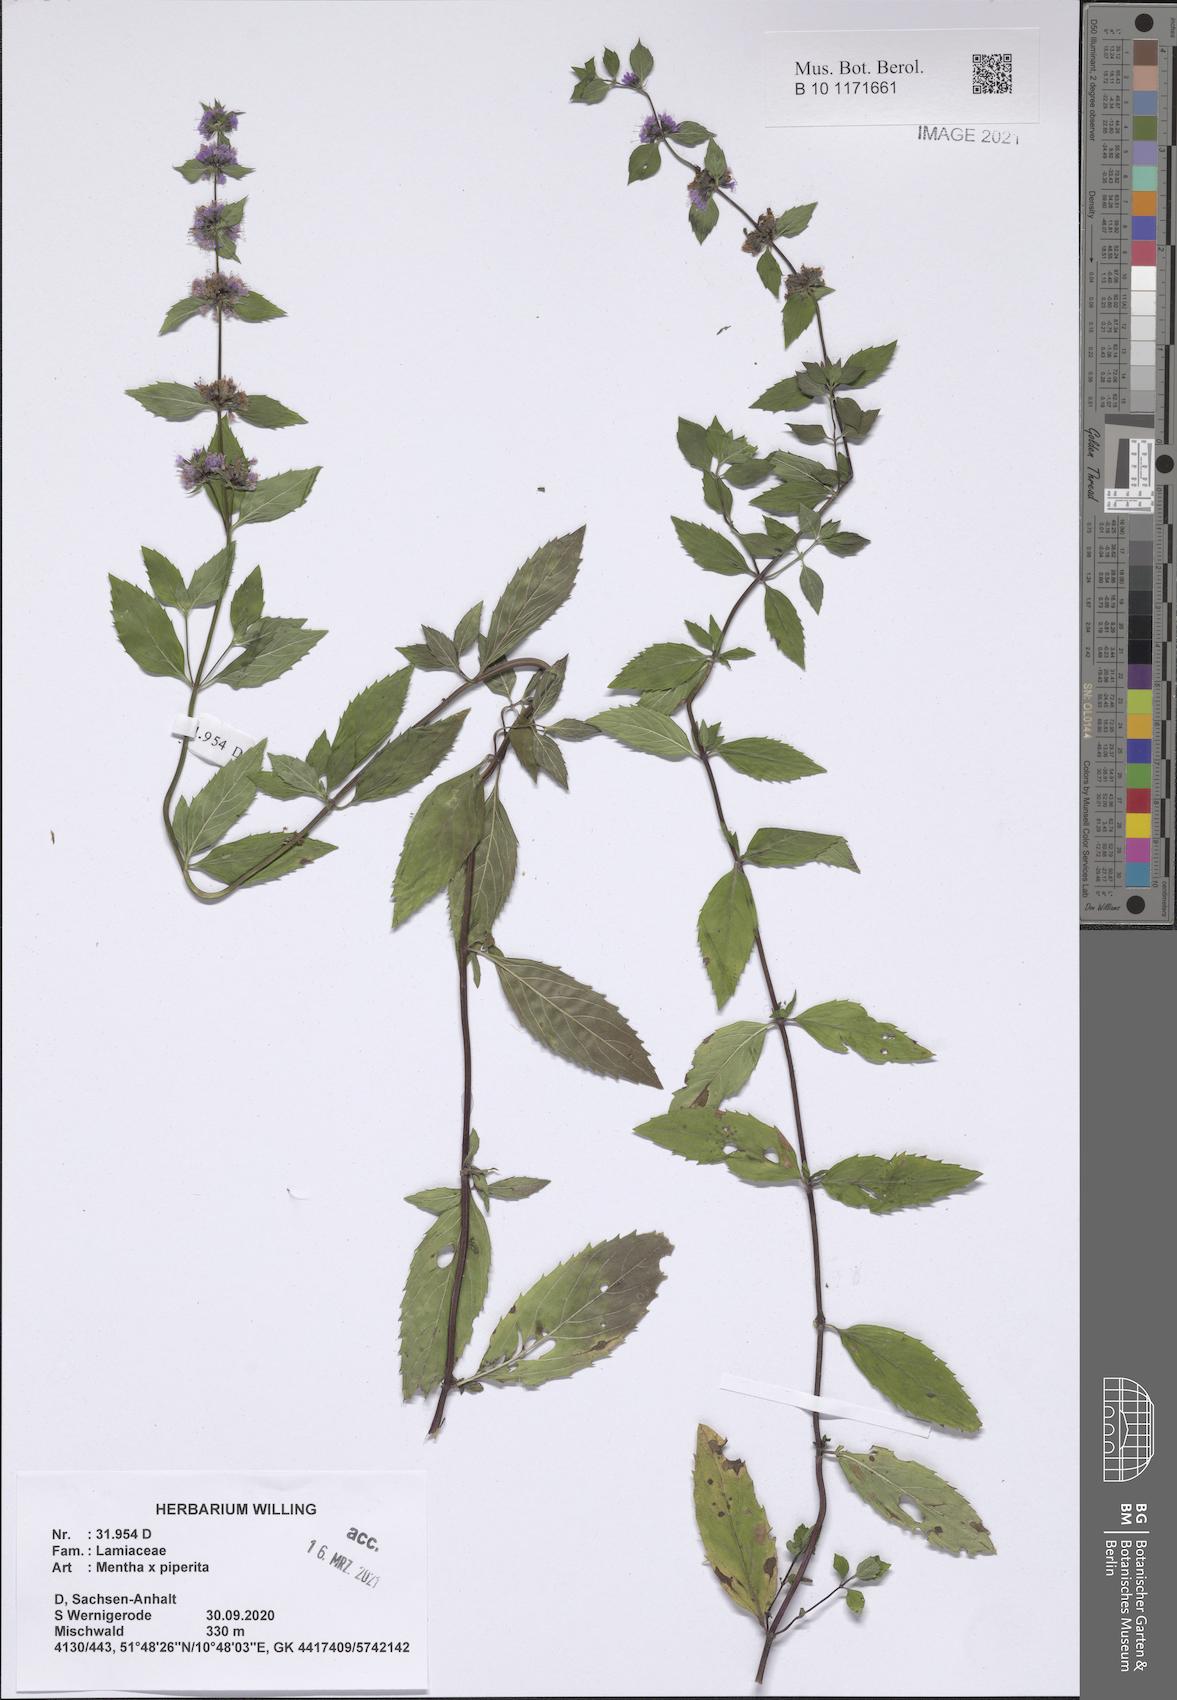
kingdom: Plantae
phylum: Tracheophyta
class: Magnoliopsida
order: Lamiales
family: Lamiaceae
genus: Mentha
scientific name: Mentha piperita
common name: Peppermint
